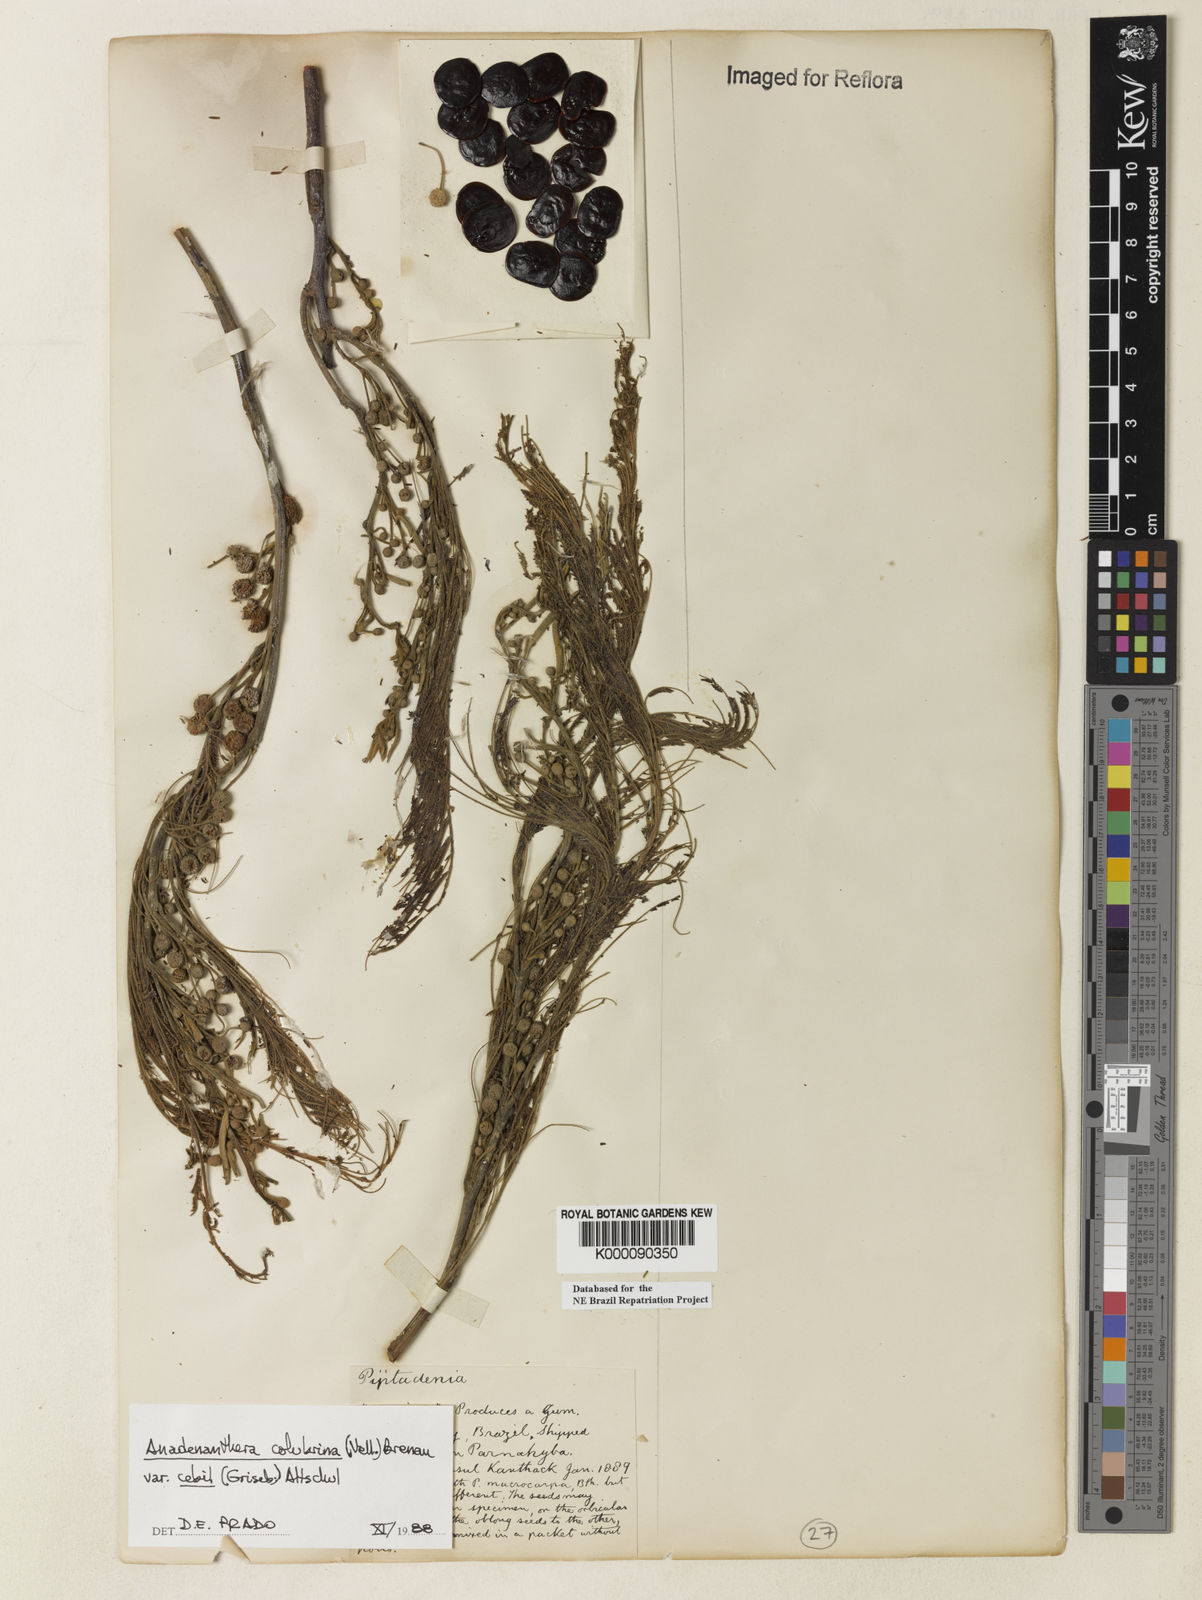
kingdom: Plantae
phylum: Tracheophyta
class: Magnoliopsida
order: Fabales
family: Fabaceae
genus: Anadenanthera
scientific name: Anadenanthera colubrina
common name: Curupay
